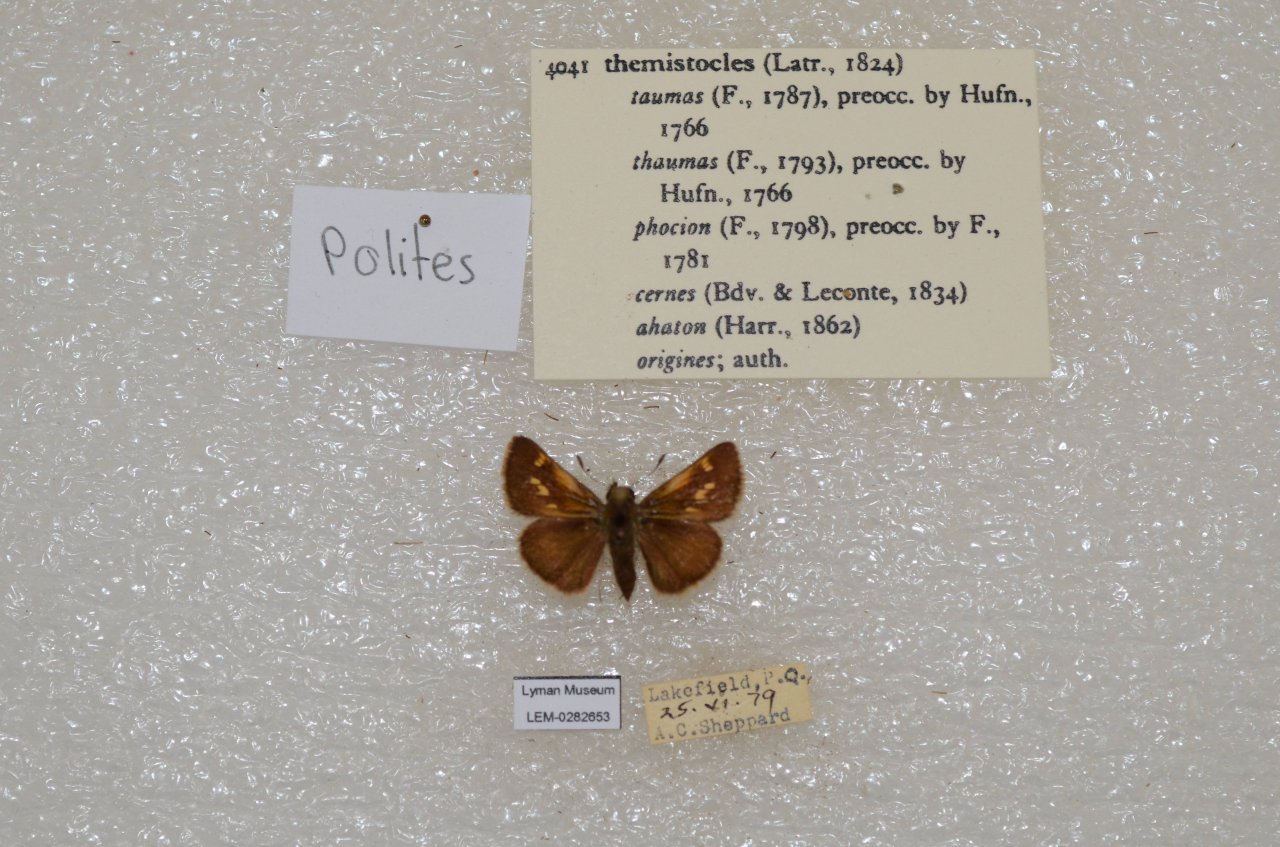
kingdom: Animalia
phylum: Arthropoda
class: Insecta
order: Lepidoptera
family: Hesperiidae
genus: Polites
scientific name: Polites themistocles
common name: Tawny-edged Skipper
